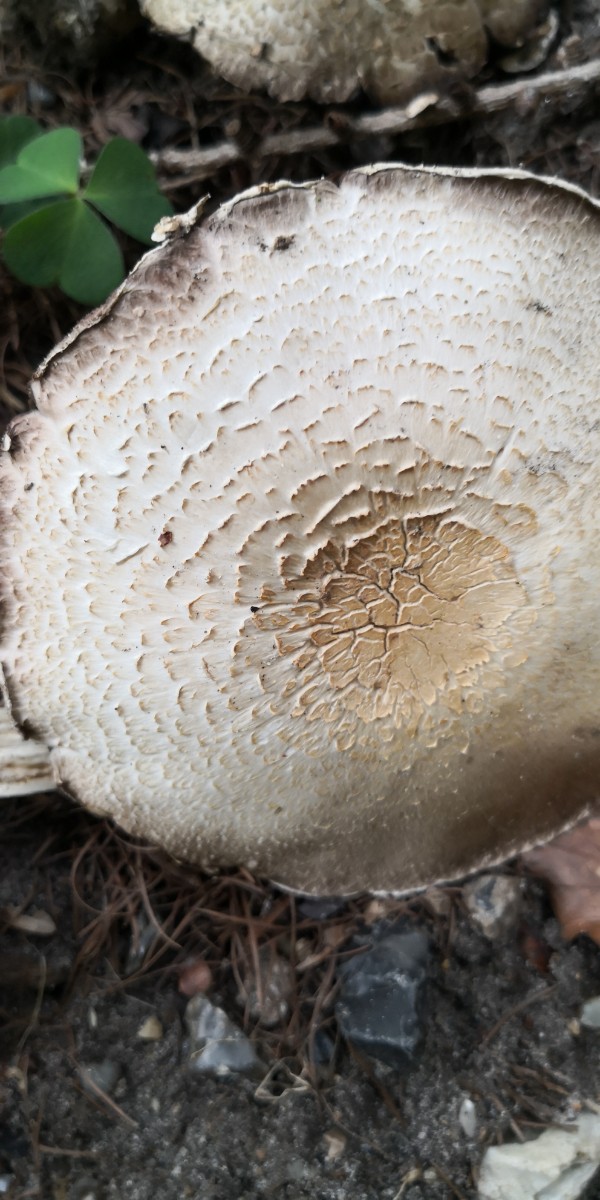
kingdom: Fungi
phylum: Basidiomycota
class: Agaricomycetes
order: Agaricales
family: Agaricaceae
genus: Agaricus
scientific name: Agaricus
